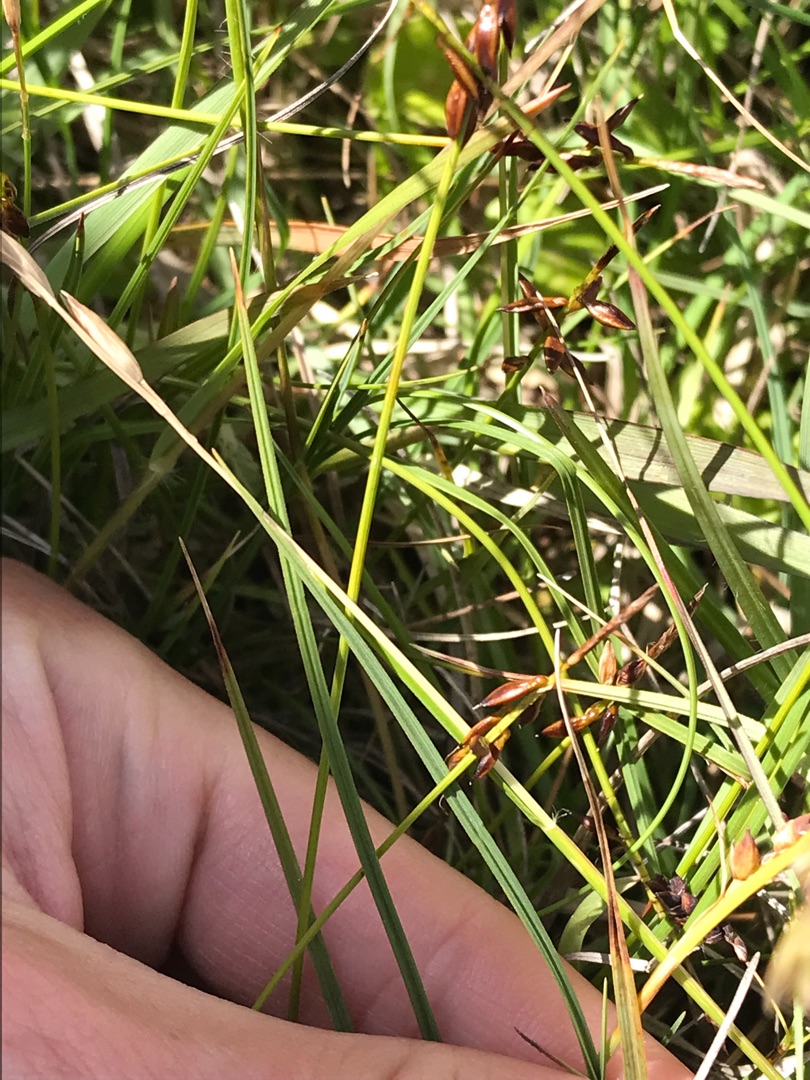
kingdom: Plantae
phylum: Tracheophyta
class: Liliopsida
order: Poales
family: Cyperaceae
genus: Carex
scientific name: Carex pulicaris
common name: Loppe-star
